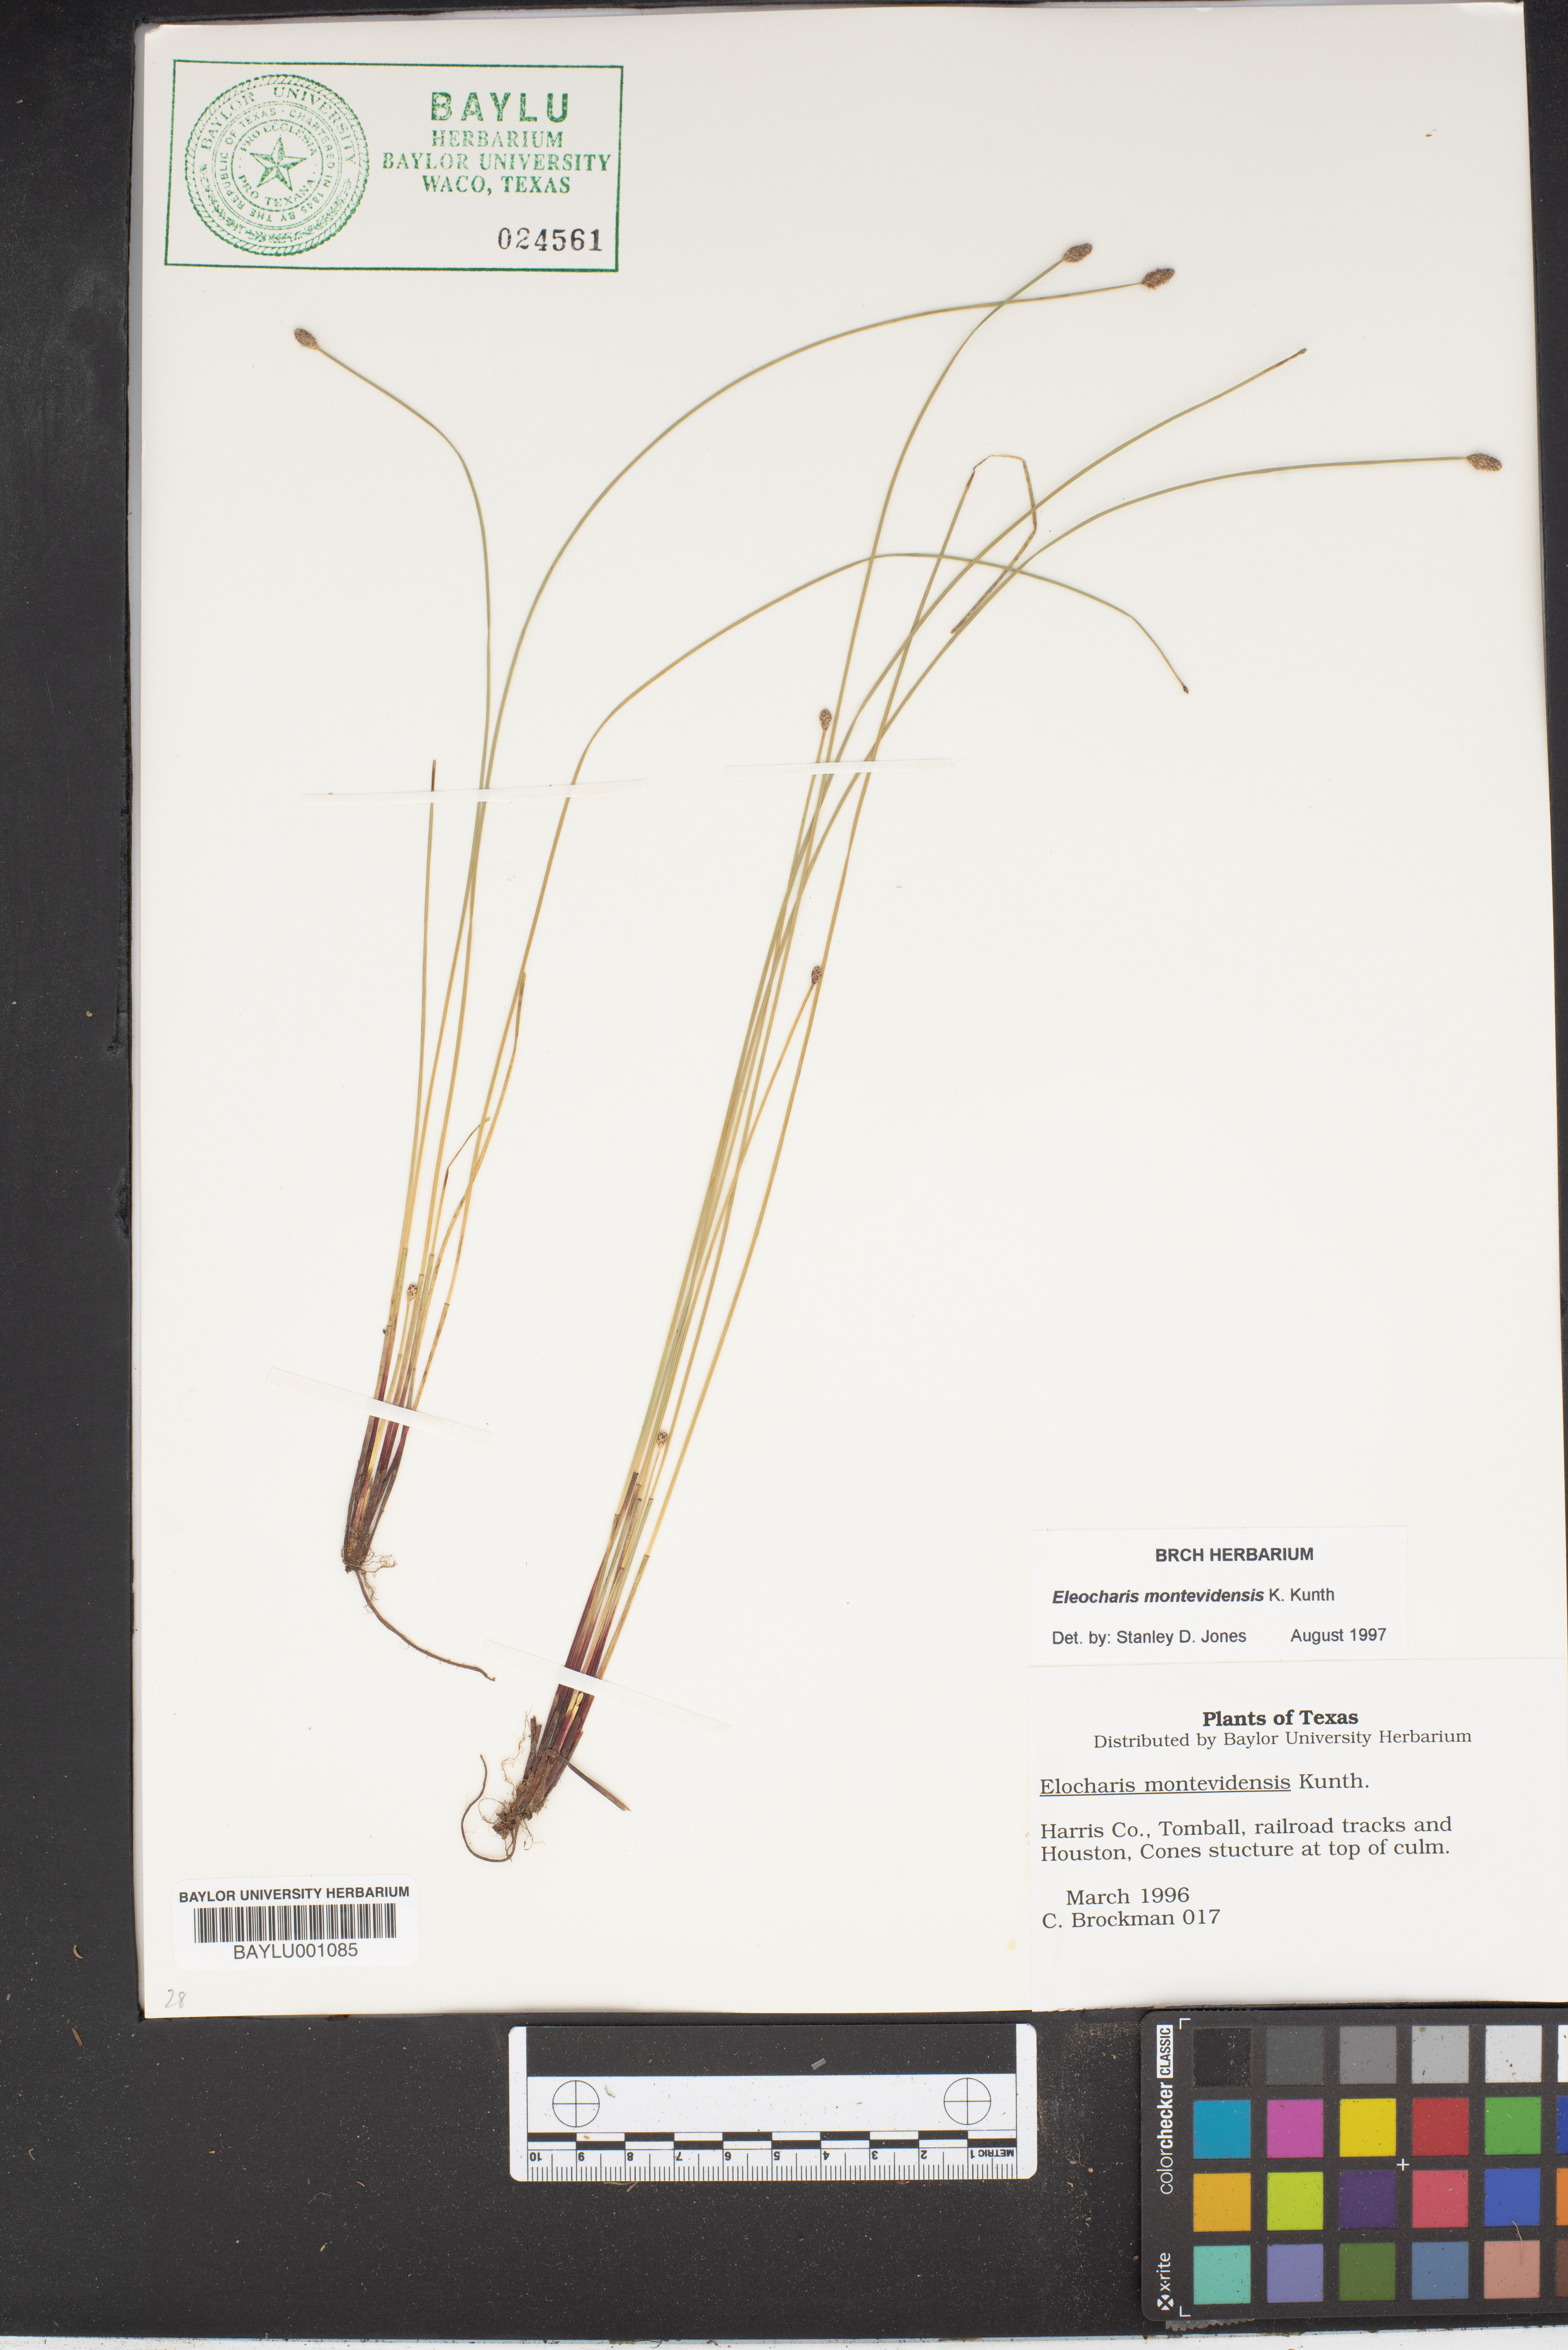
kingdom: Plantae
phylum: Tracheophyta
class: Liliopsida
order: Poales
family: Cyperaceae
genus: Eleocharis
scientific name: Eleocharis montevidensis
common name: Sand spike-rush
